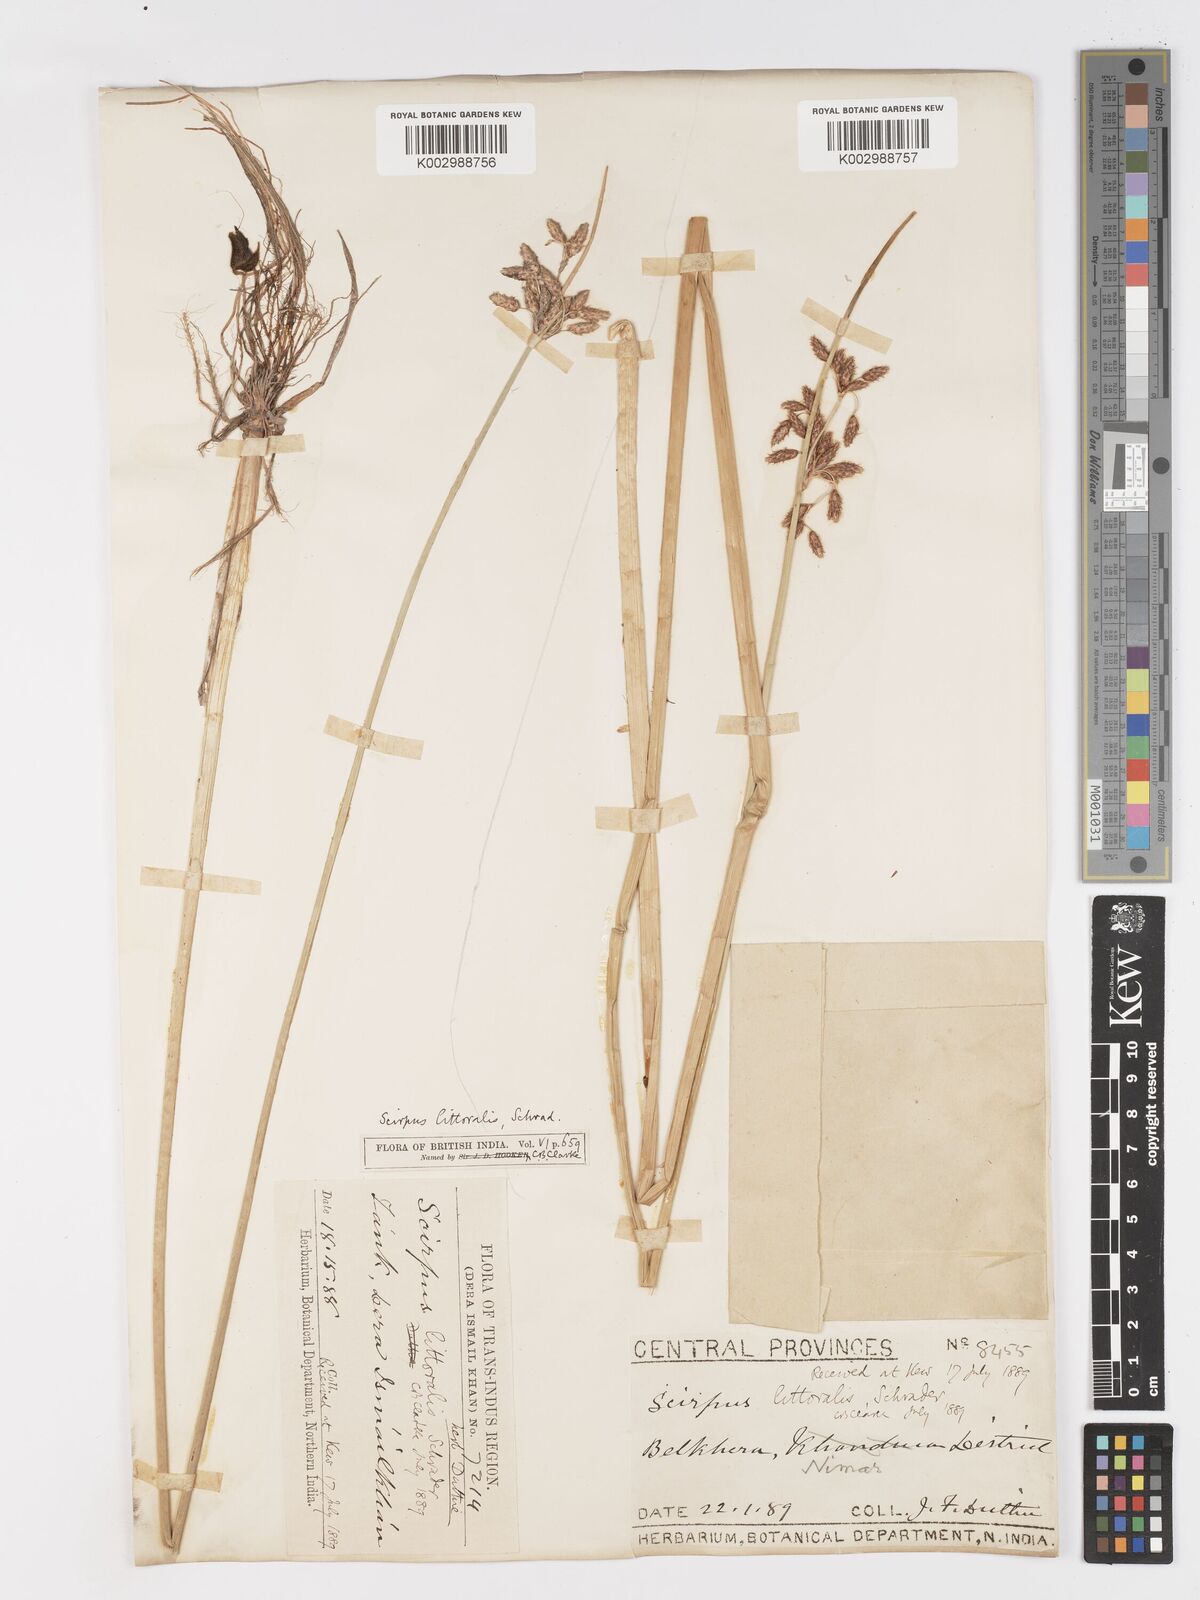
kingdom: Plantae
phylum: Tracheophyta
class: Liliopsida
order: Poales
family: Cyperaceae
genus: Schoenoplectus
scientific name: Schoenoplectus litoralis
